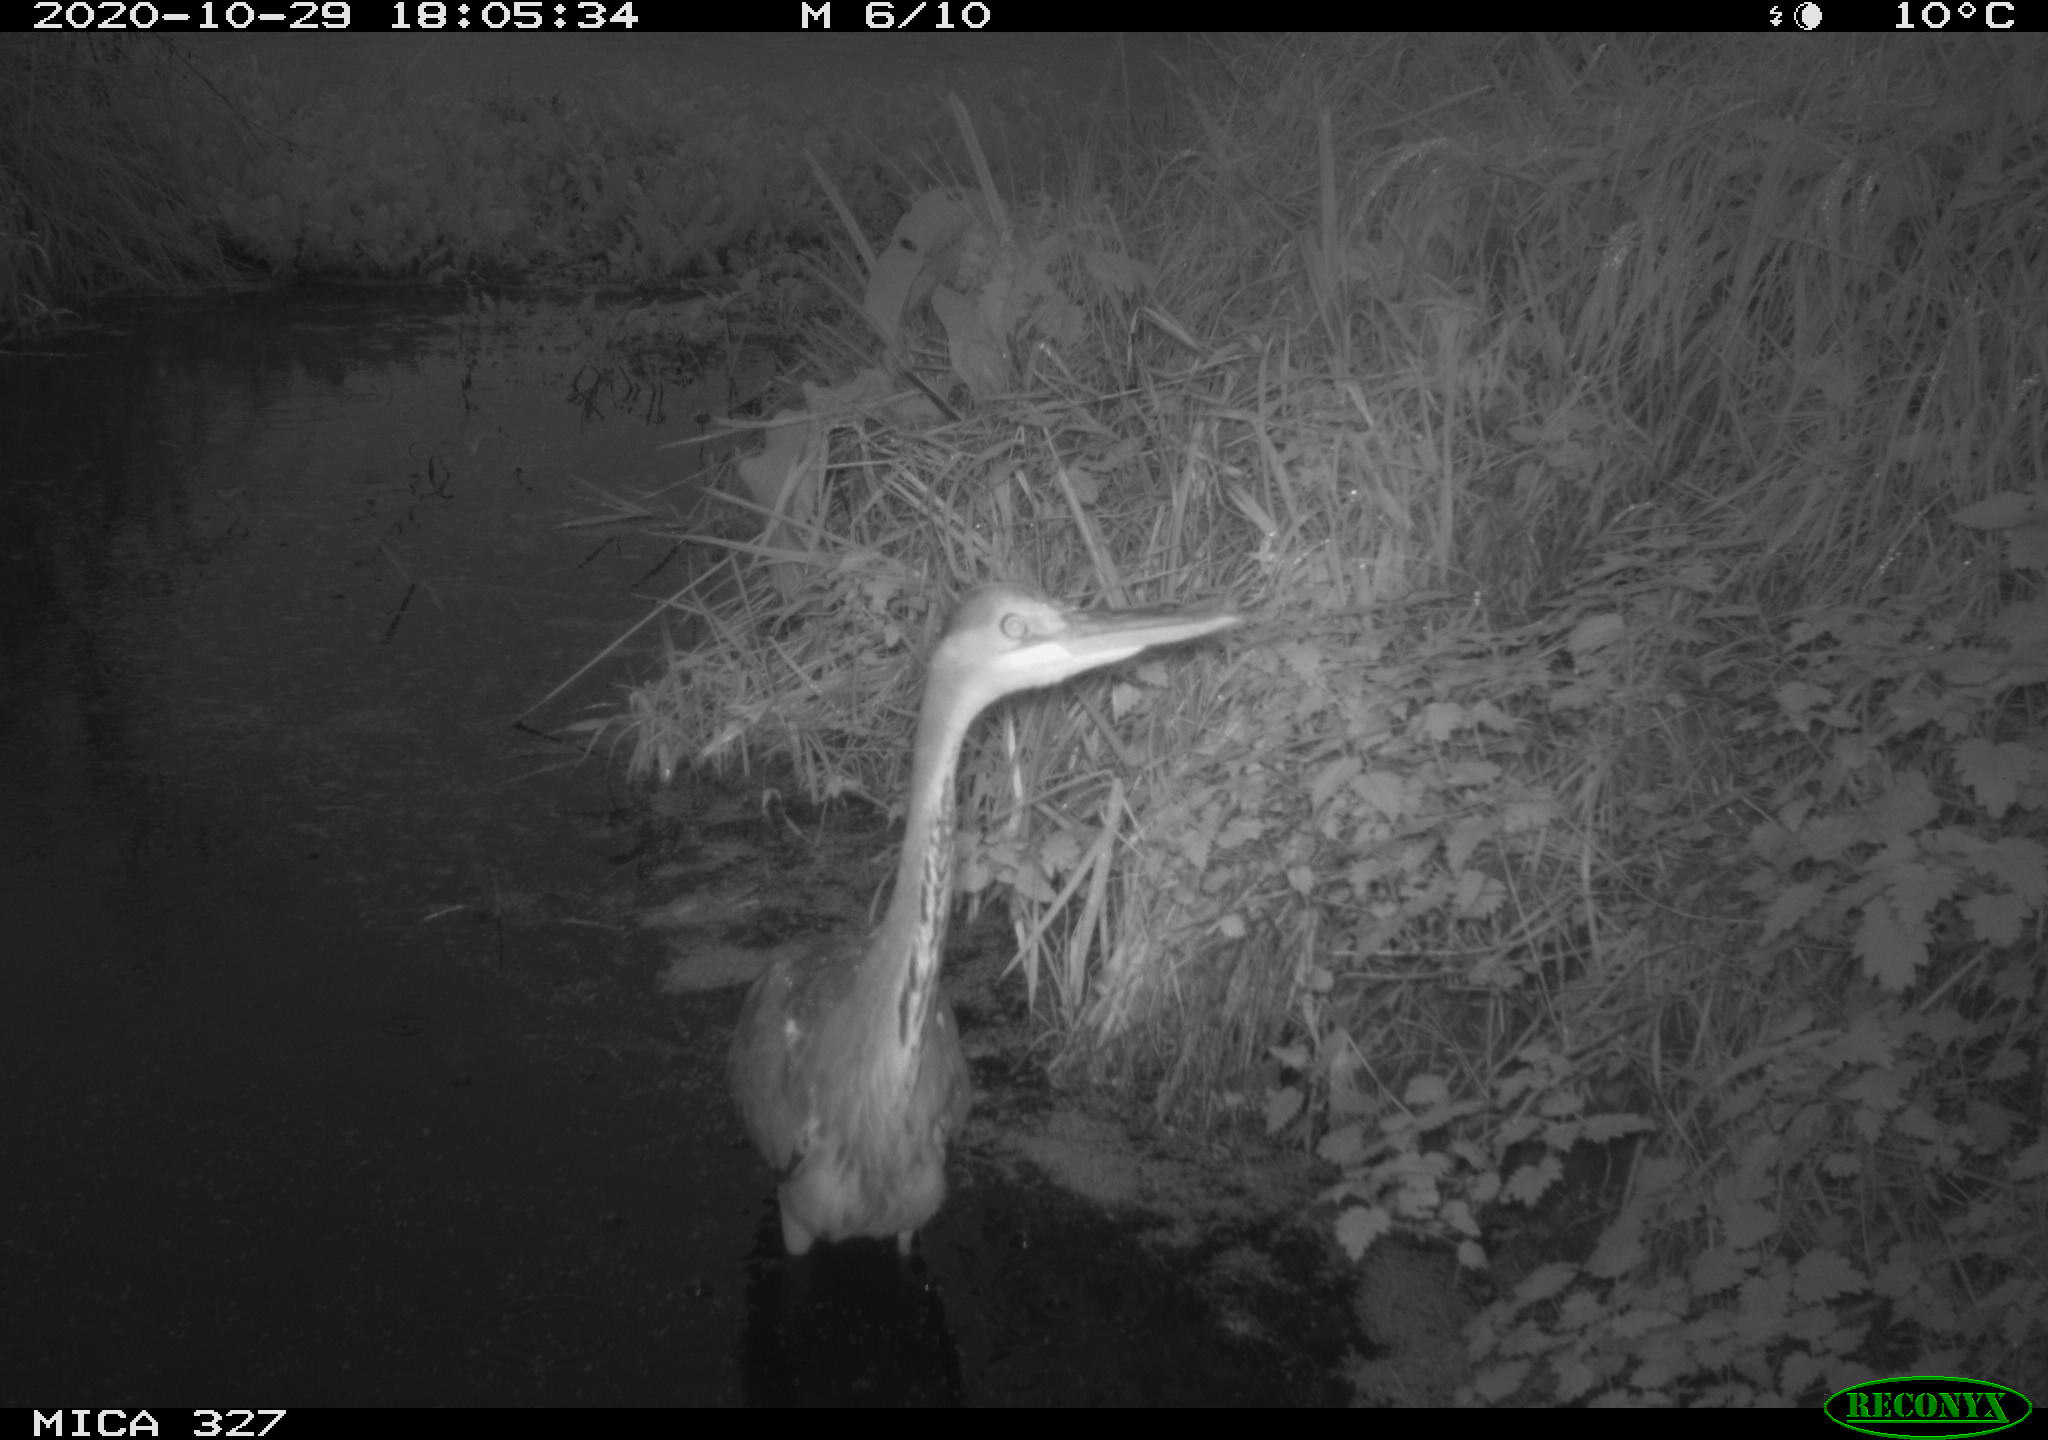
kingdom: Animalia
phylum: Chordata
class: Aves
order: Pelecaniformes
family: Ardeidae
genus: Ardea
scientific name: Ardea cinerea
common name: Grey heron
